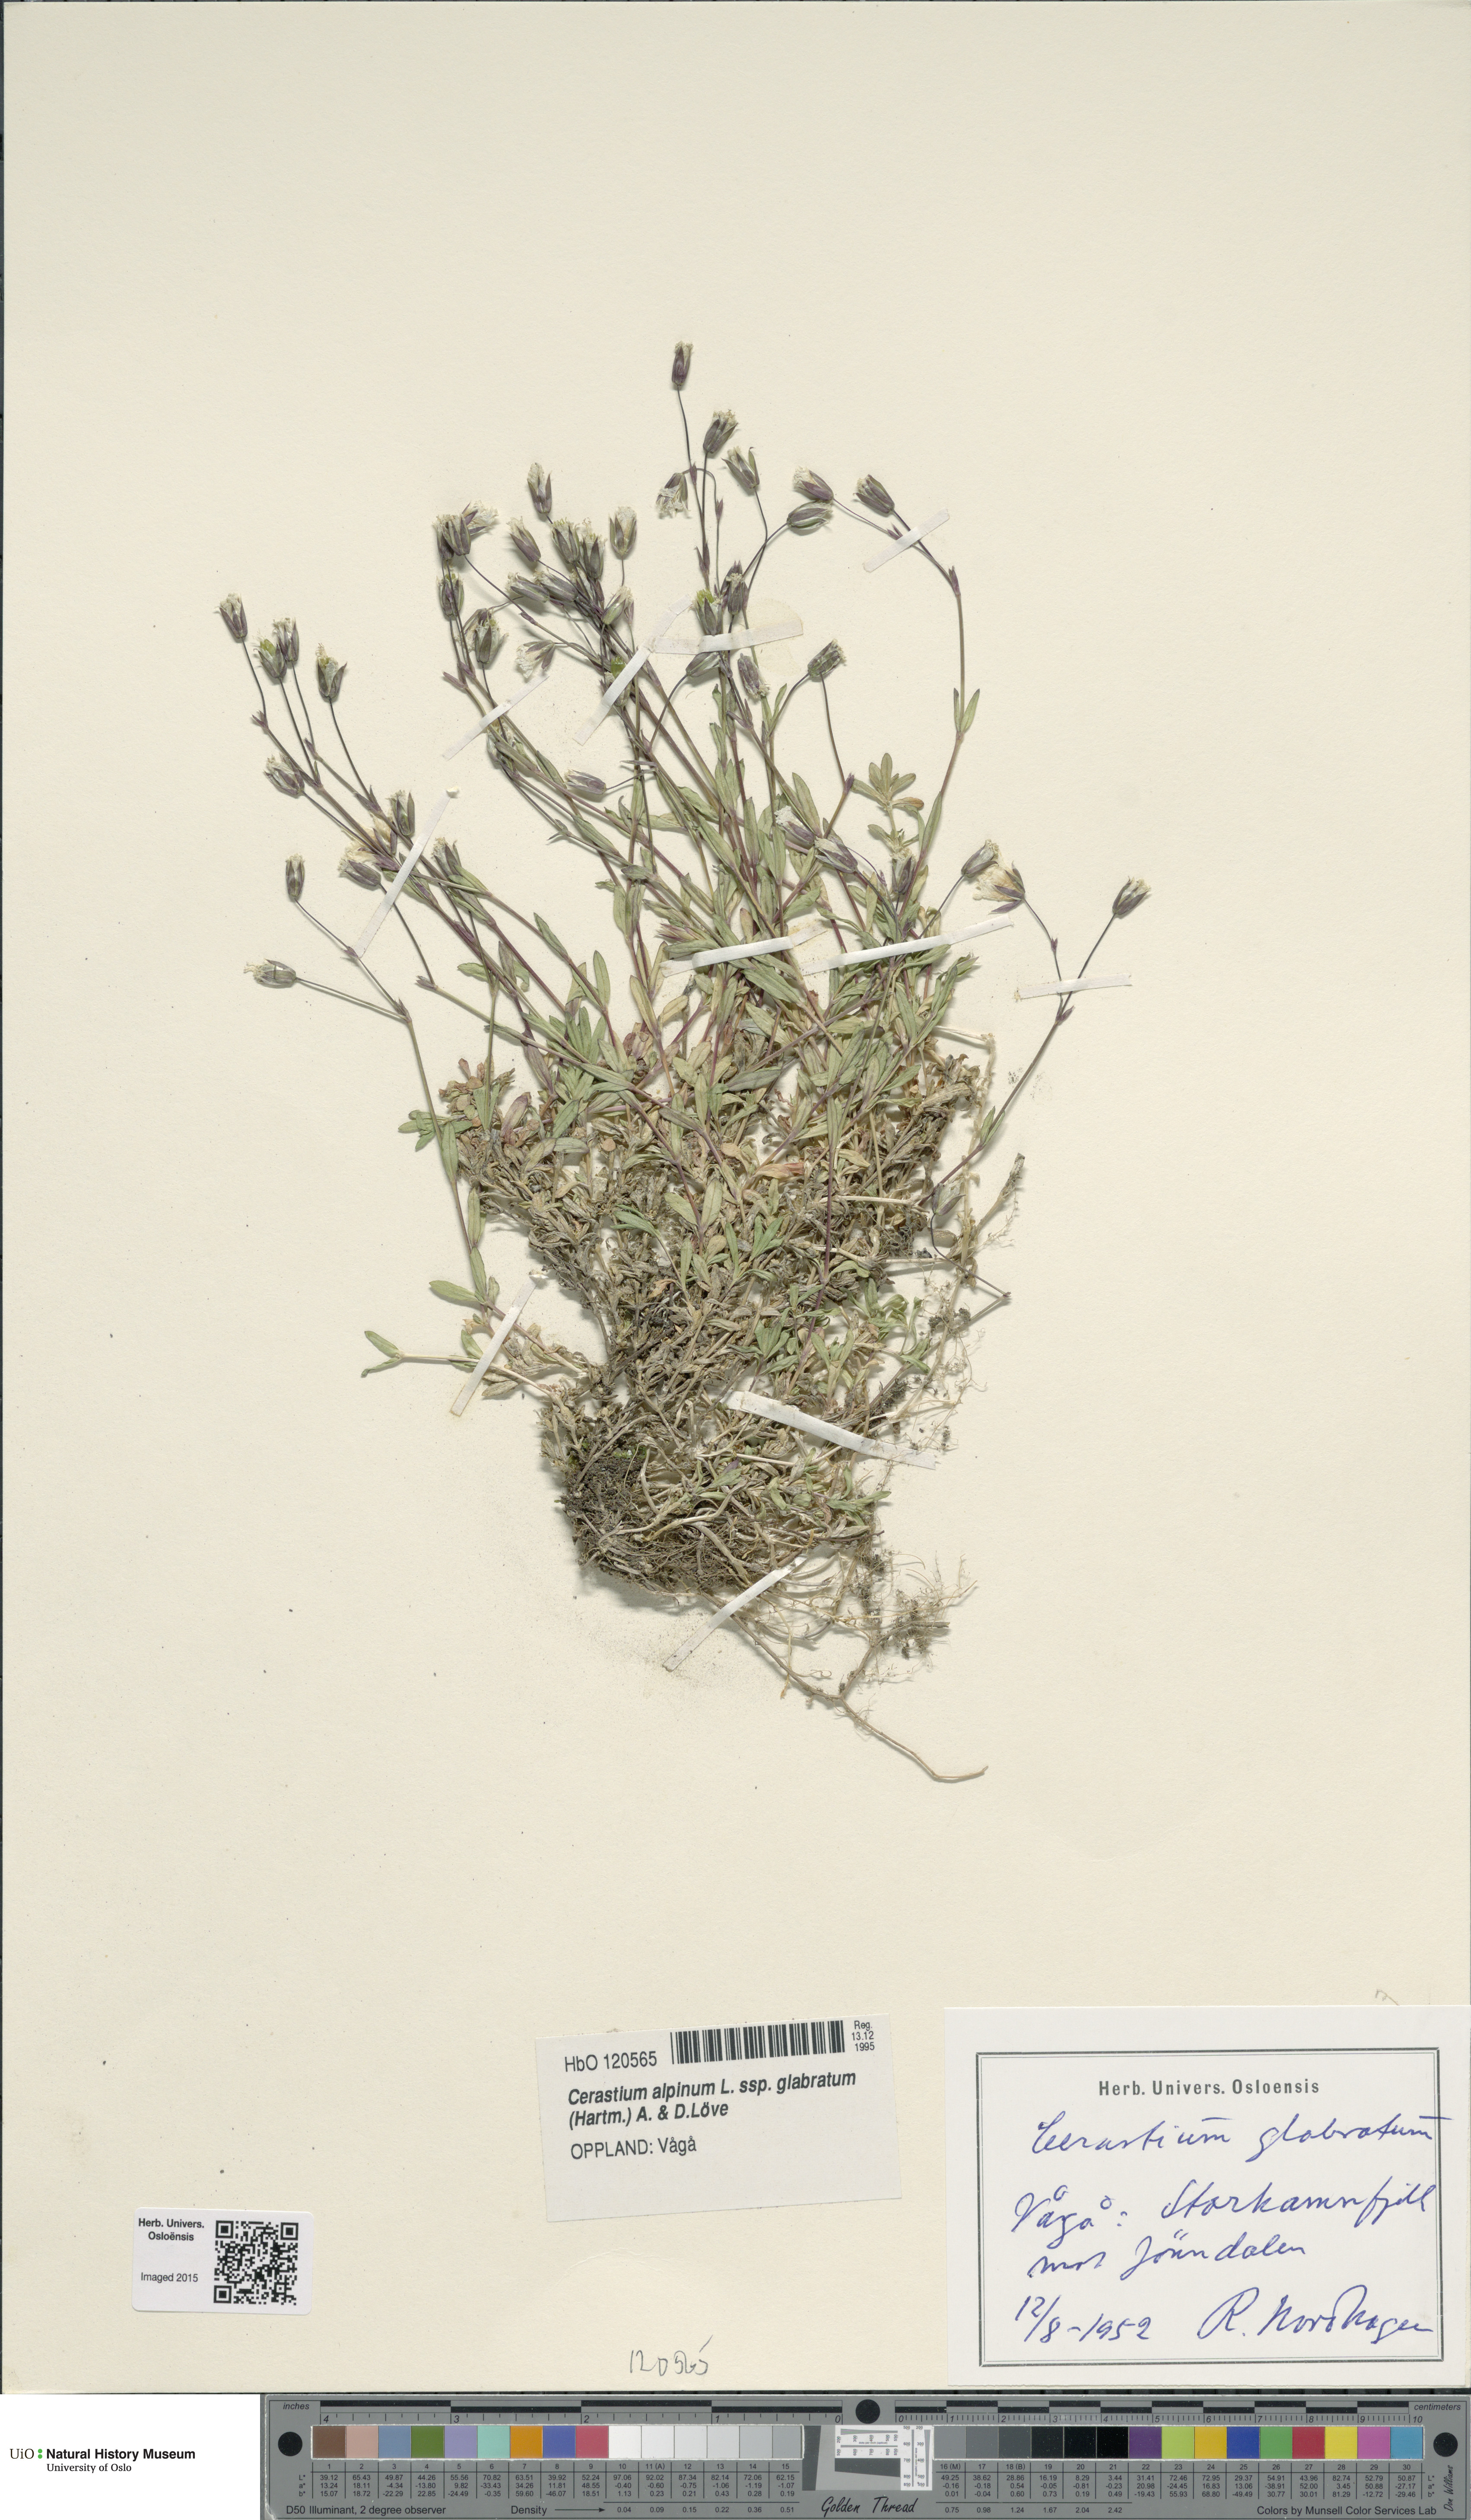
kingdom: Plantae
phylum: Tracheophyta
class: Magnoliopsida
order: Caryophyllales
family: Caryophyllaceae
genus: Cerastium
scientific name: Cerastium alpinum
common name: Alpine mouse-ear
